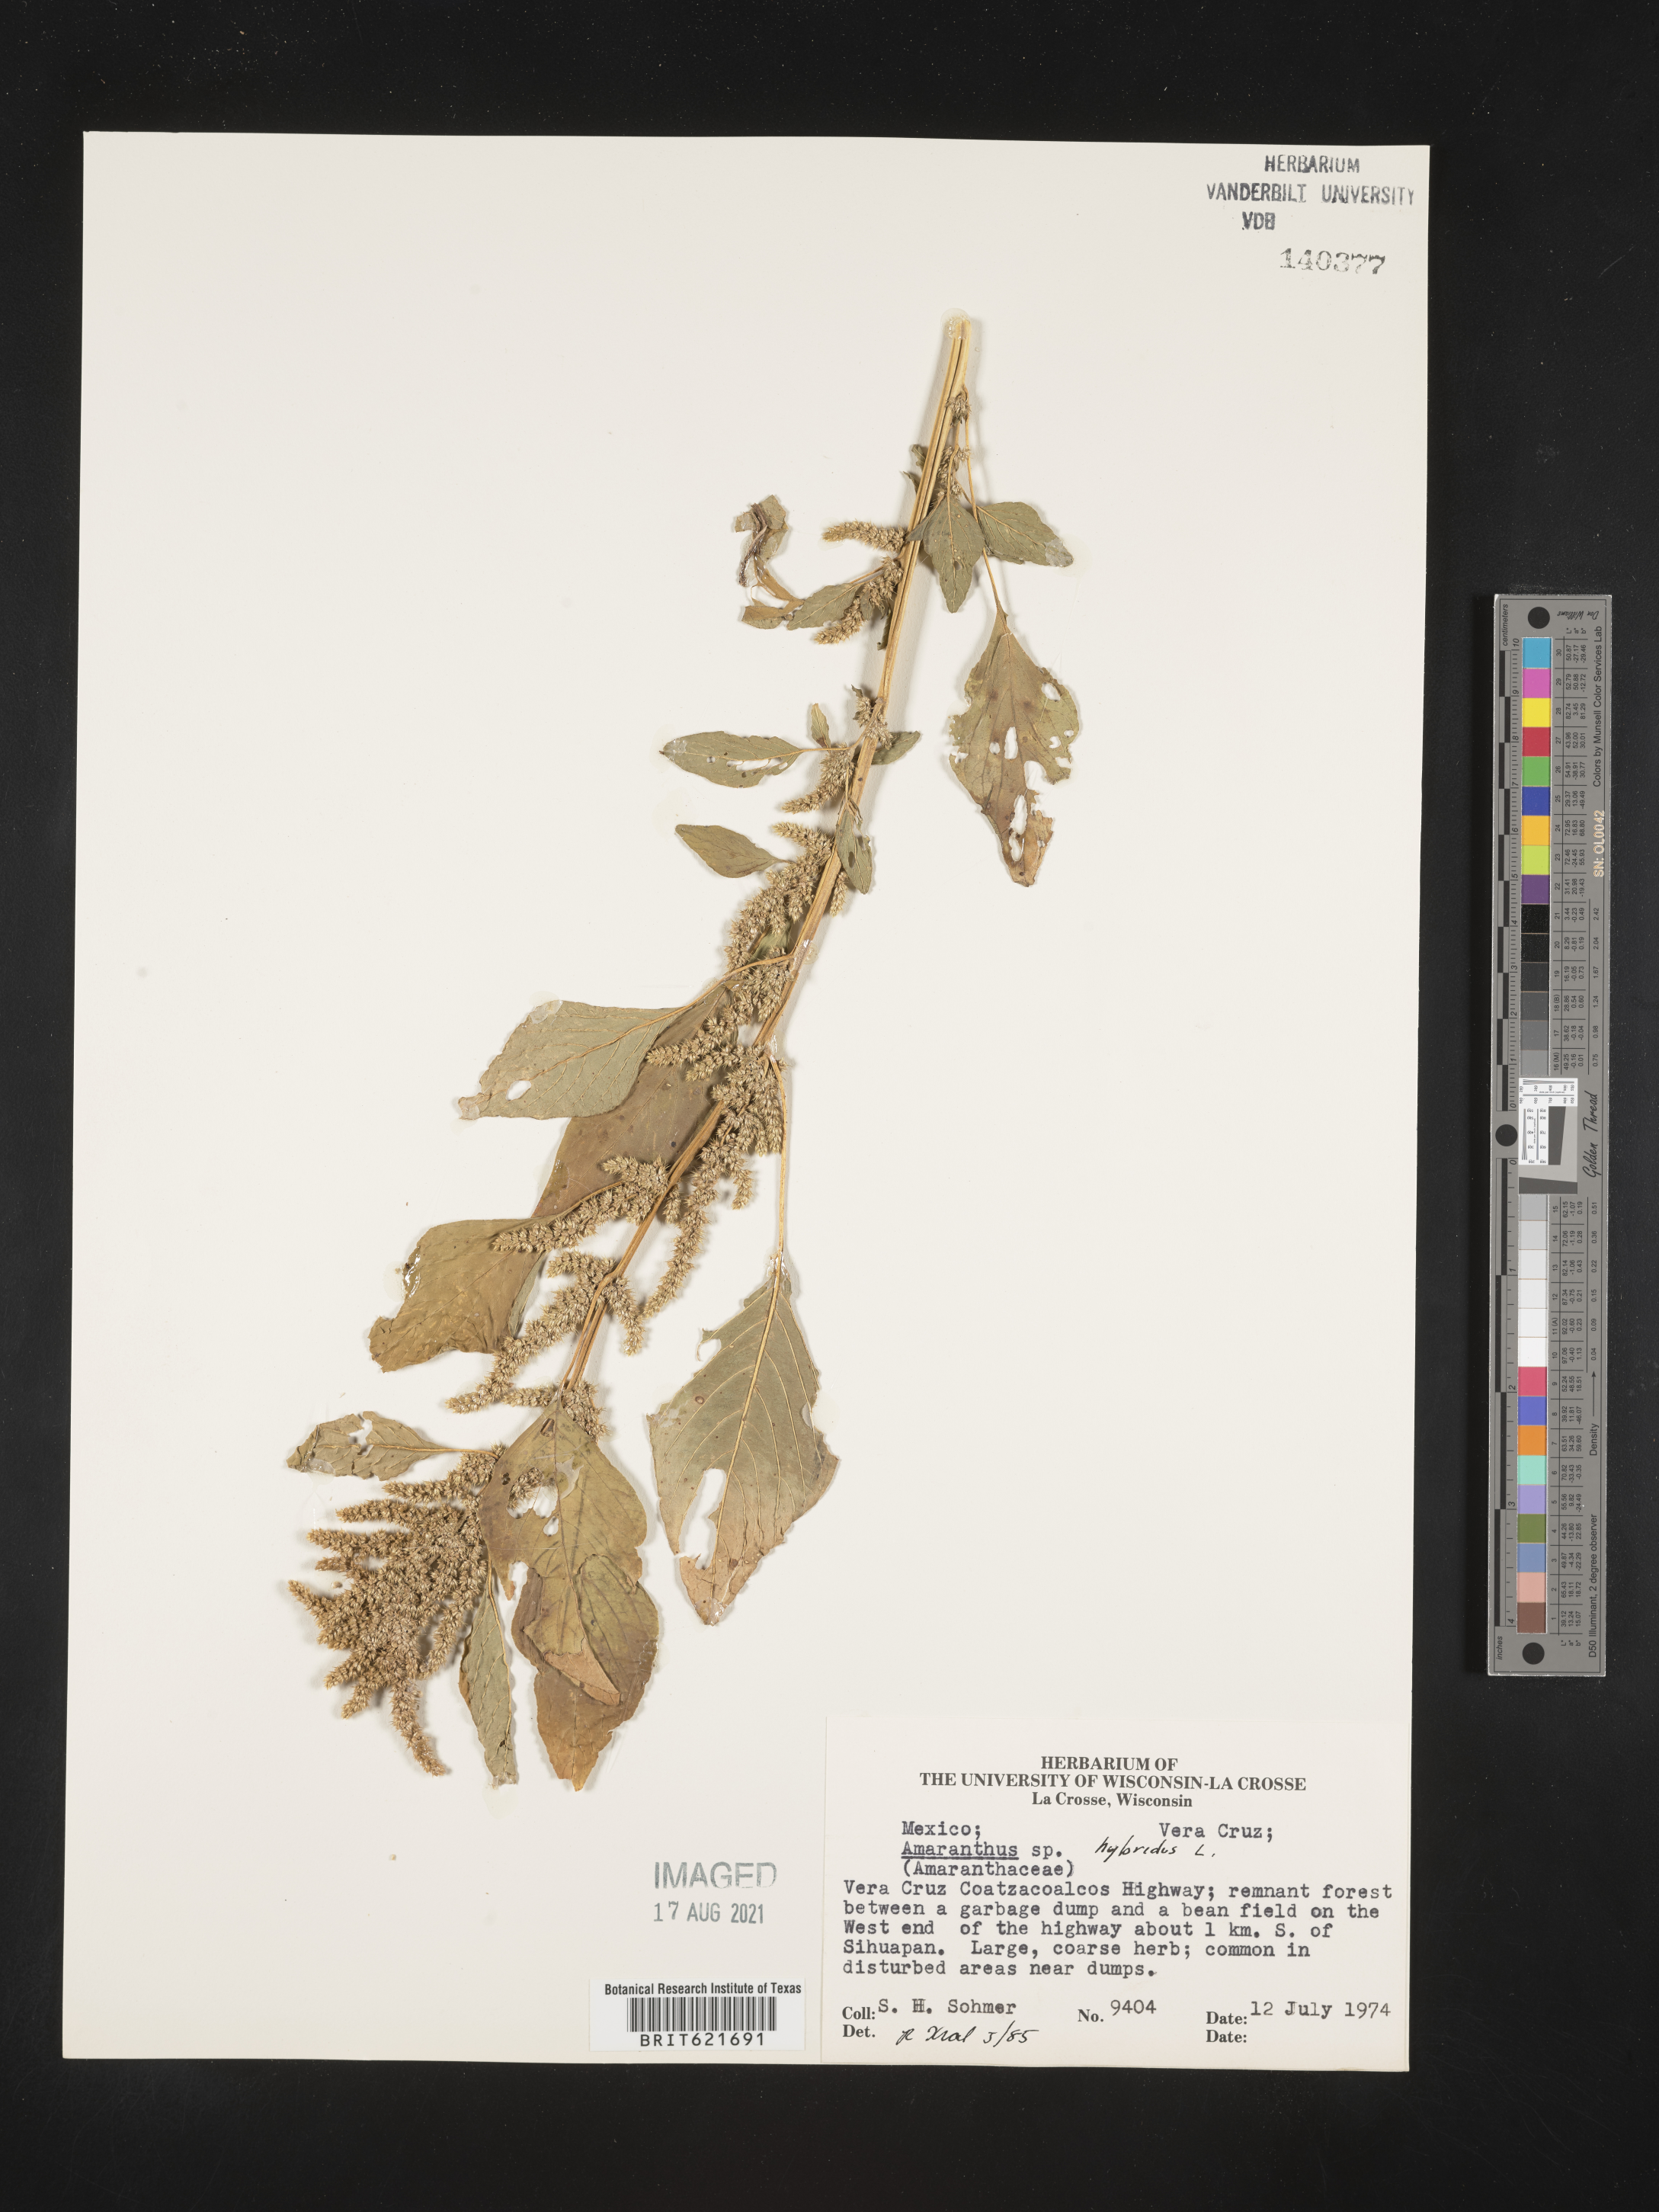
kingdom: Plantae
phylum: Tracheophyta
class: Magnoliopsida
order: Caryophyllales
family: Amaranthaceae
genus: Amaranthus
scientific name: Amaranthus
